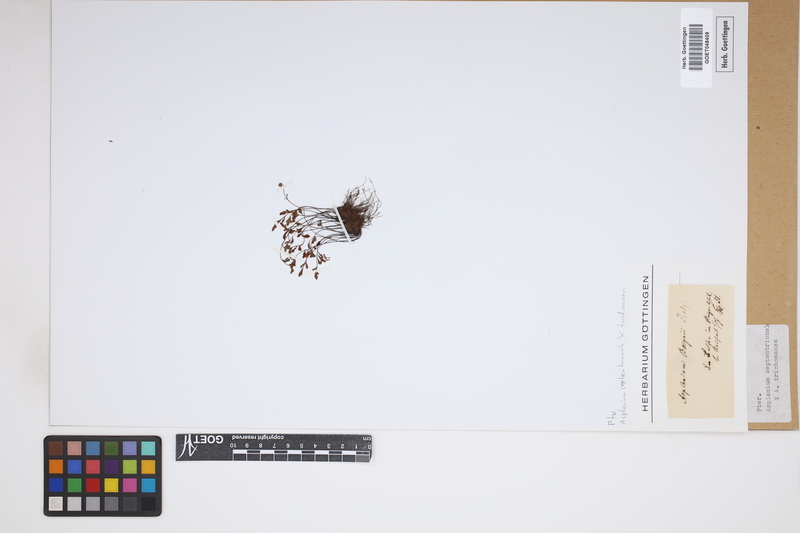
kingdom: Plantae
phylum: Tracheophyta
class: Polypodiopsida
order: Polypodiales
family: Aspleniaceae
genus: Asplenium
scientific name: Asplenium
